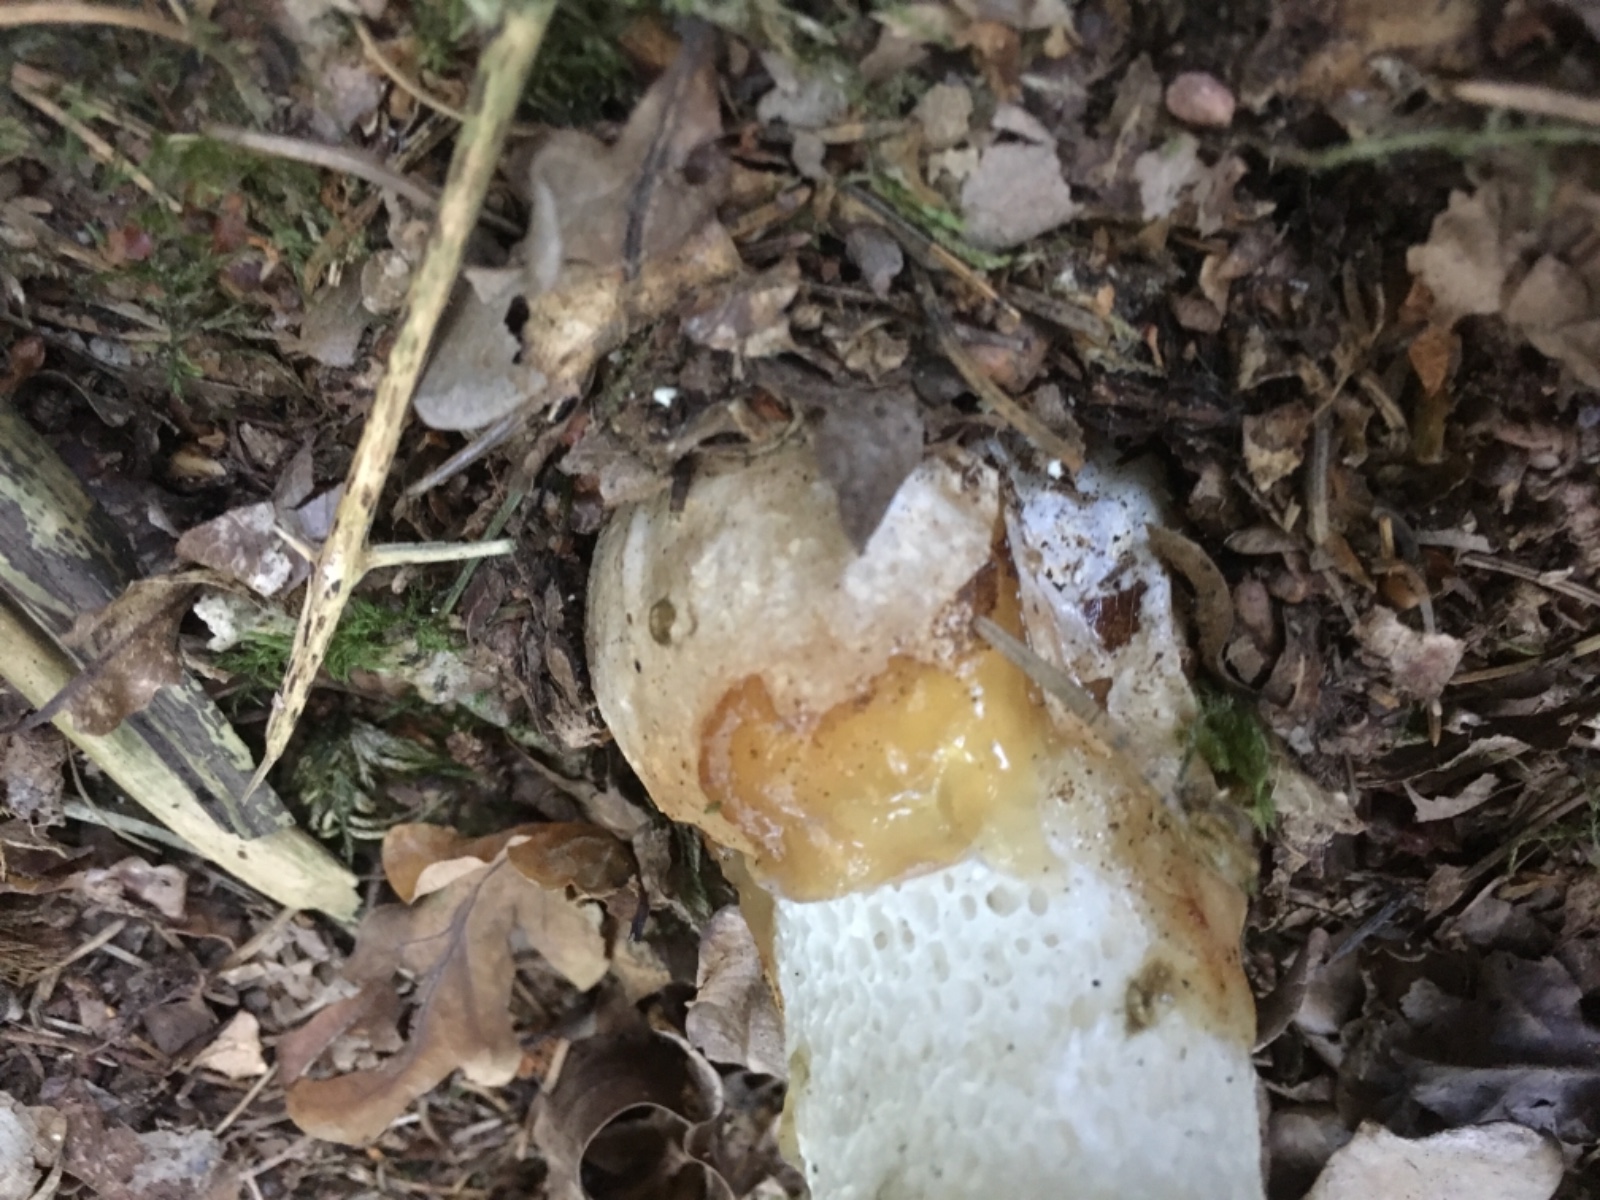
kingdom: Fungi
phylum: Basidiomycota
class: Agaricomycetes
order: Phallales
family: Phallaceae
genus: Phallus
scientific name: Phallus impudicus
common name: almindelig stinksvamp
